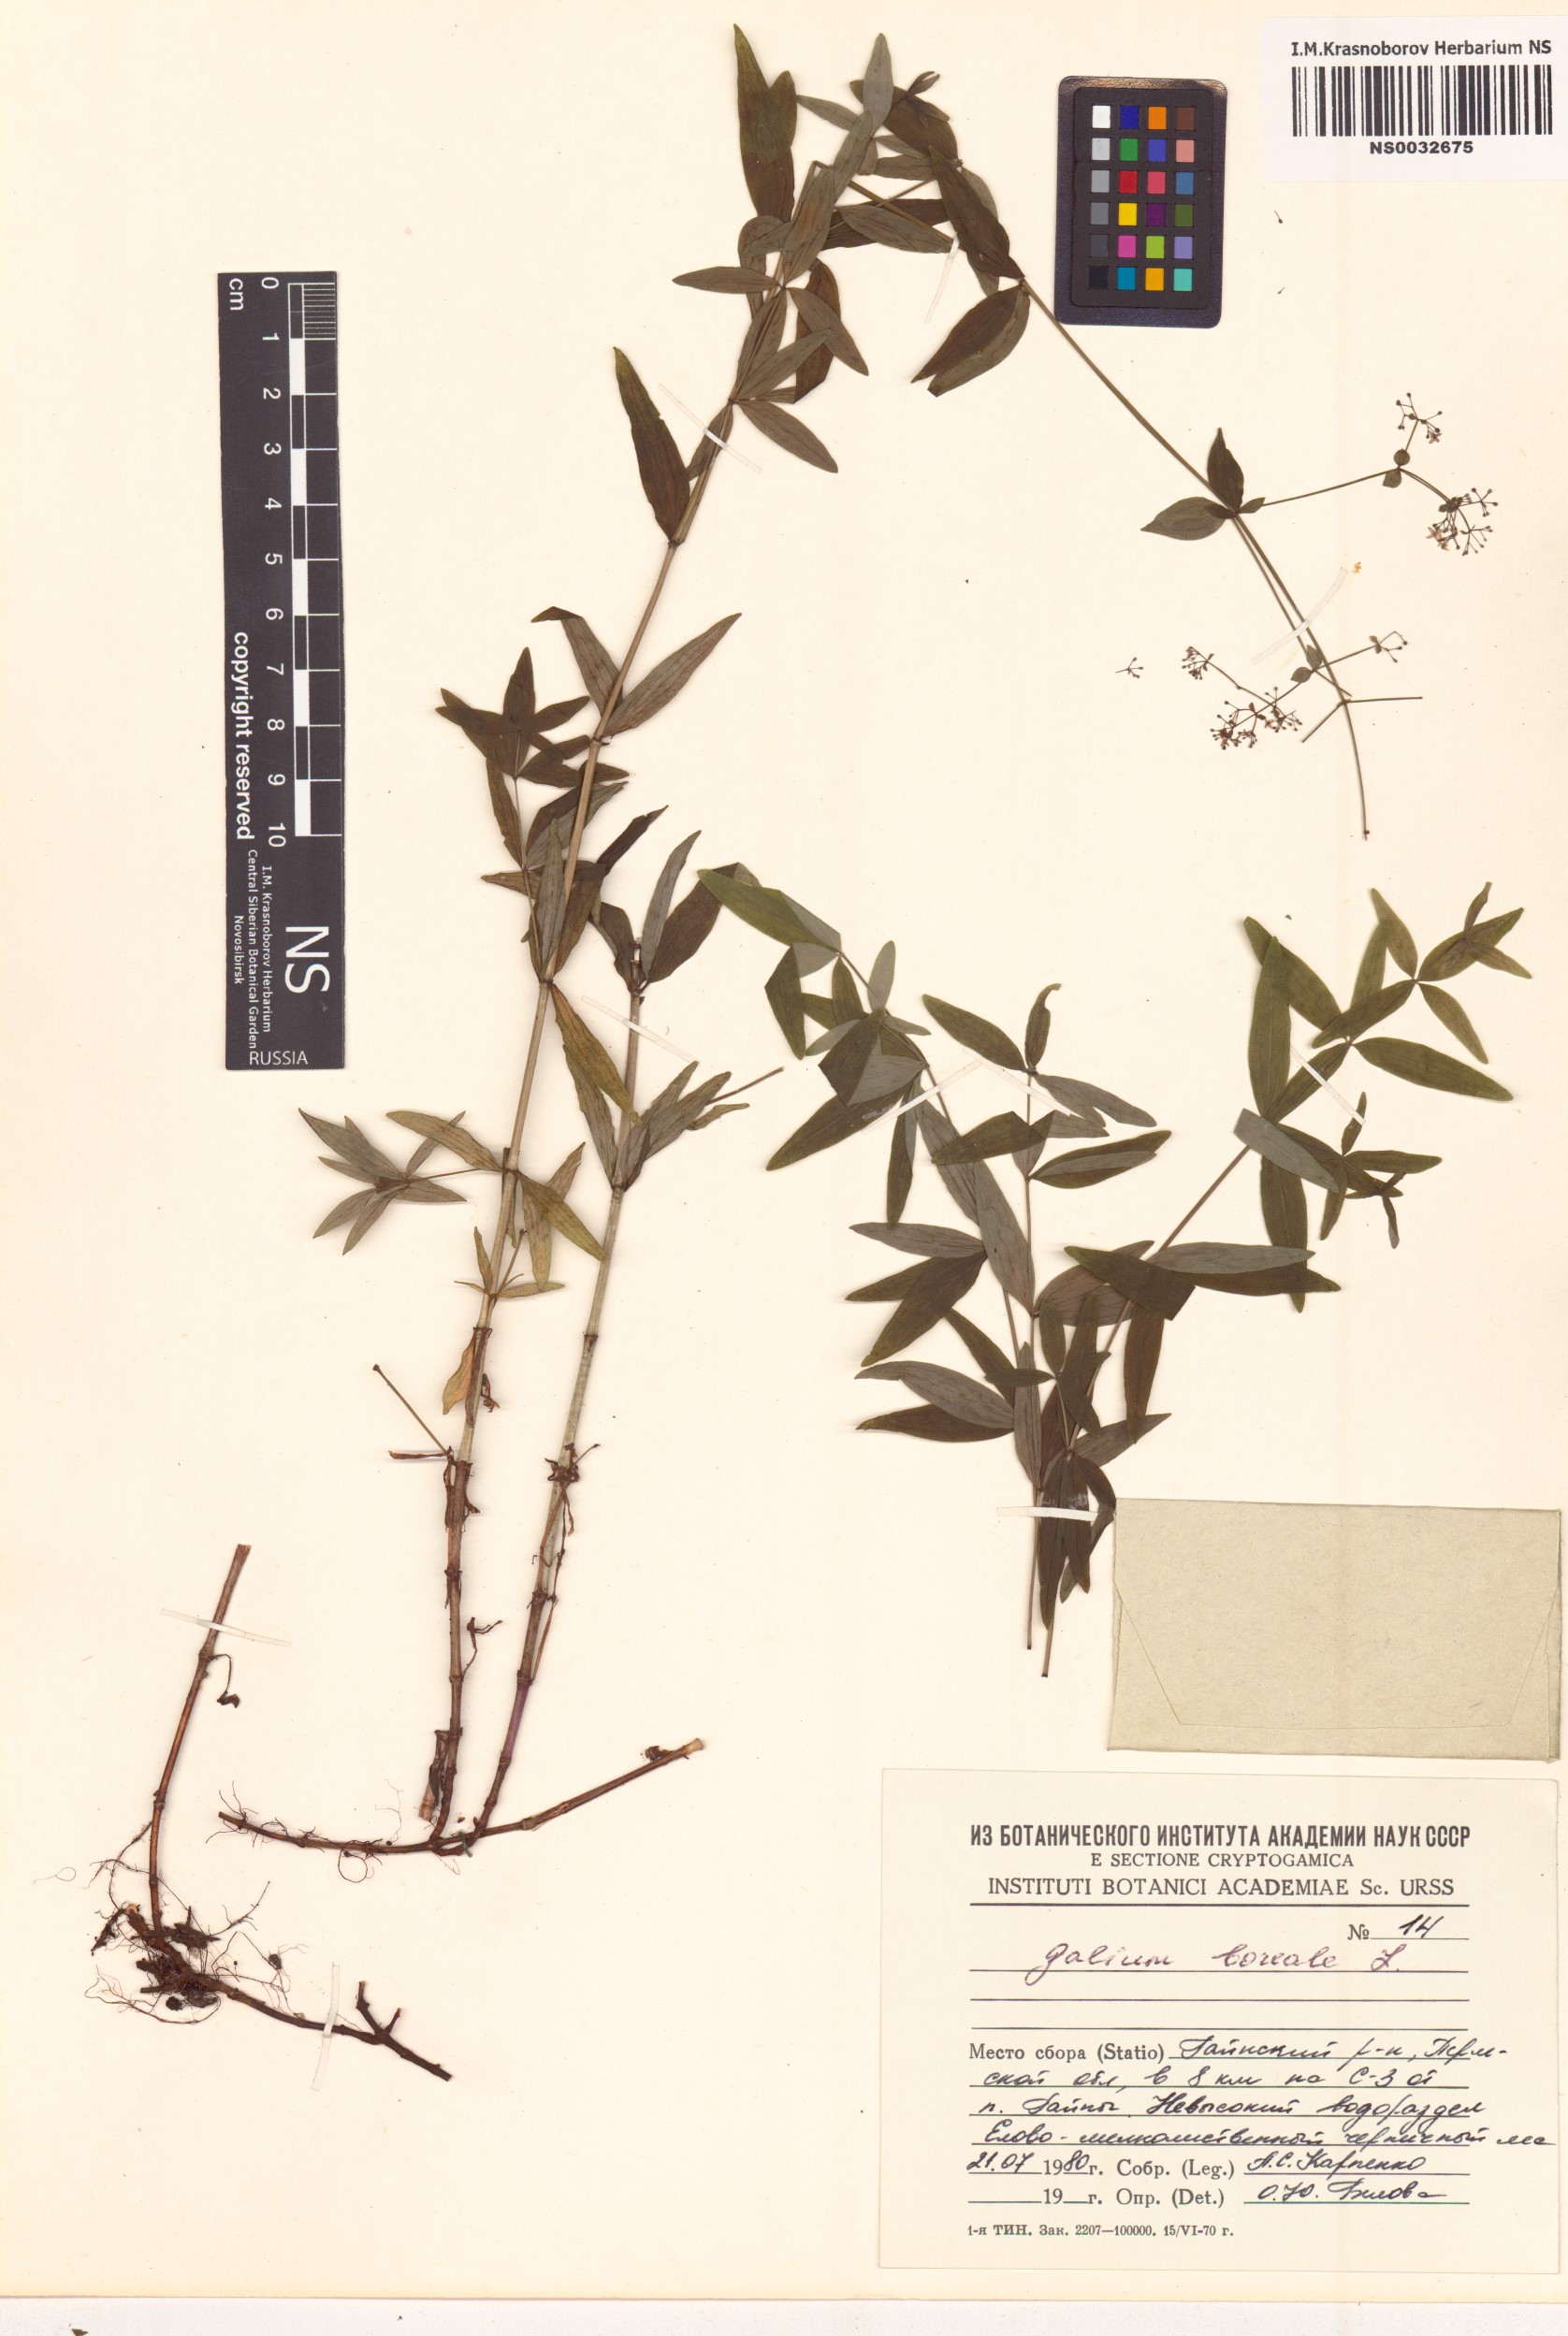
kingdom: Plantae
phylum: Tracheophyta
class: Magnoliopsida
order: Gentianales
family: Rubiaceae
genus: Galium
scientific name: Galium boreale
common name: Northern bedstraw
